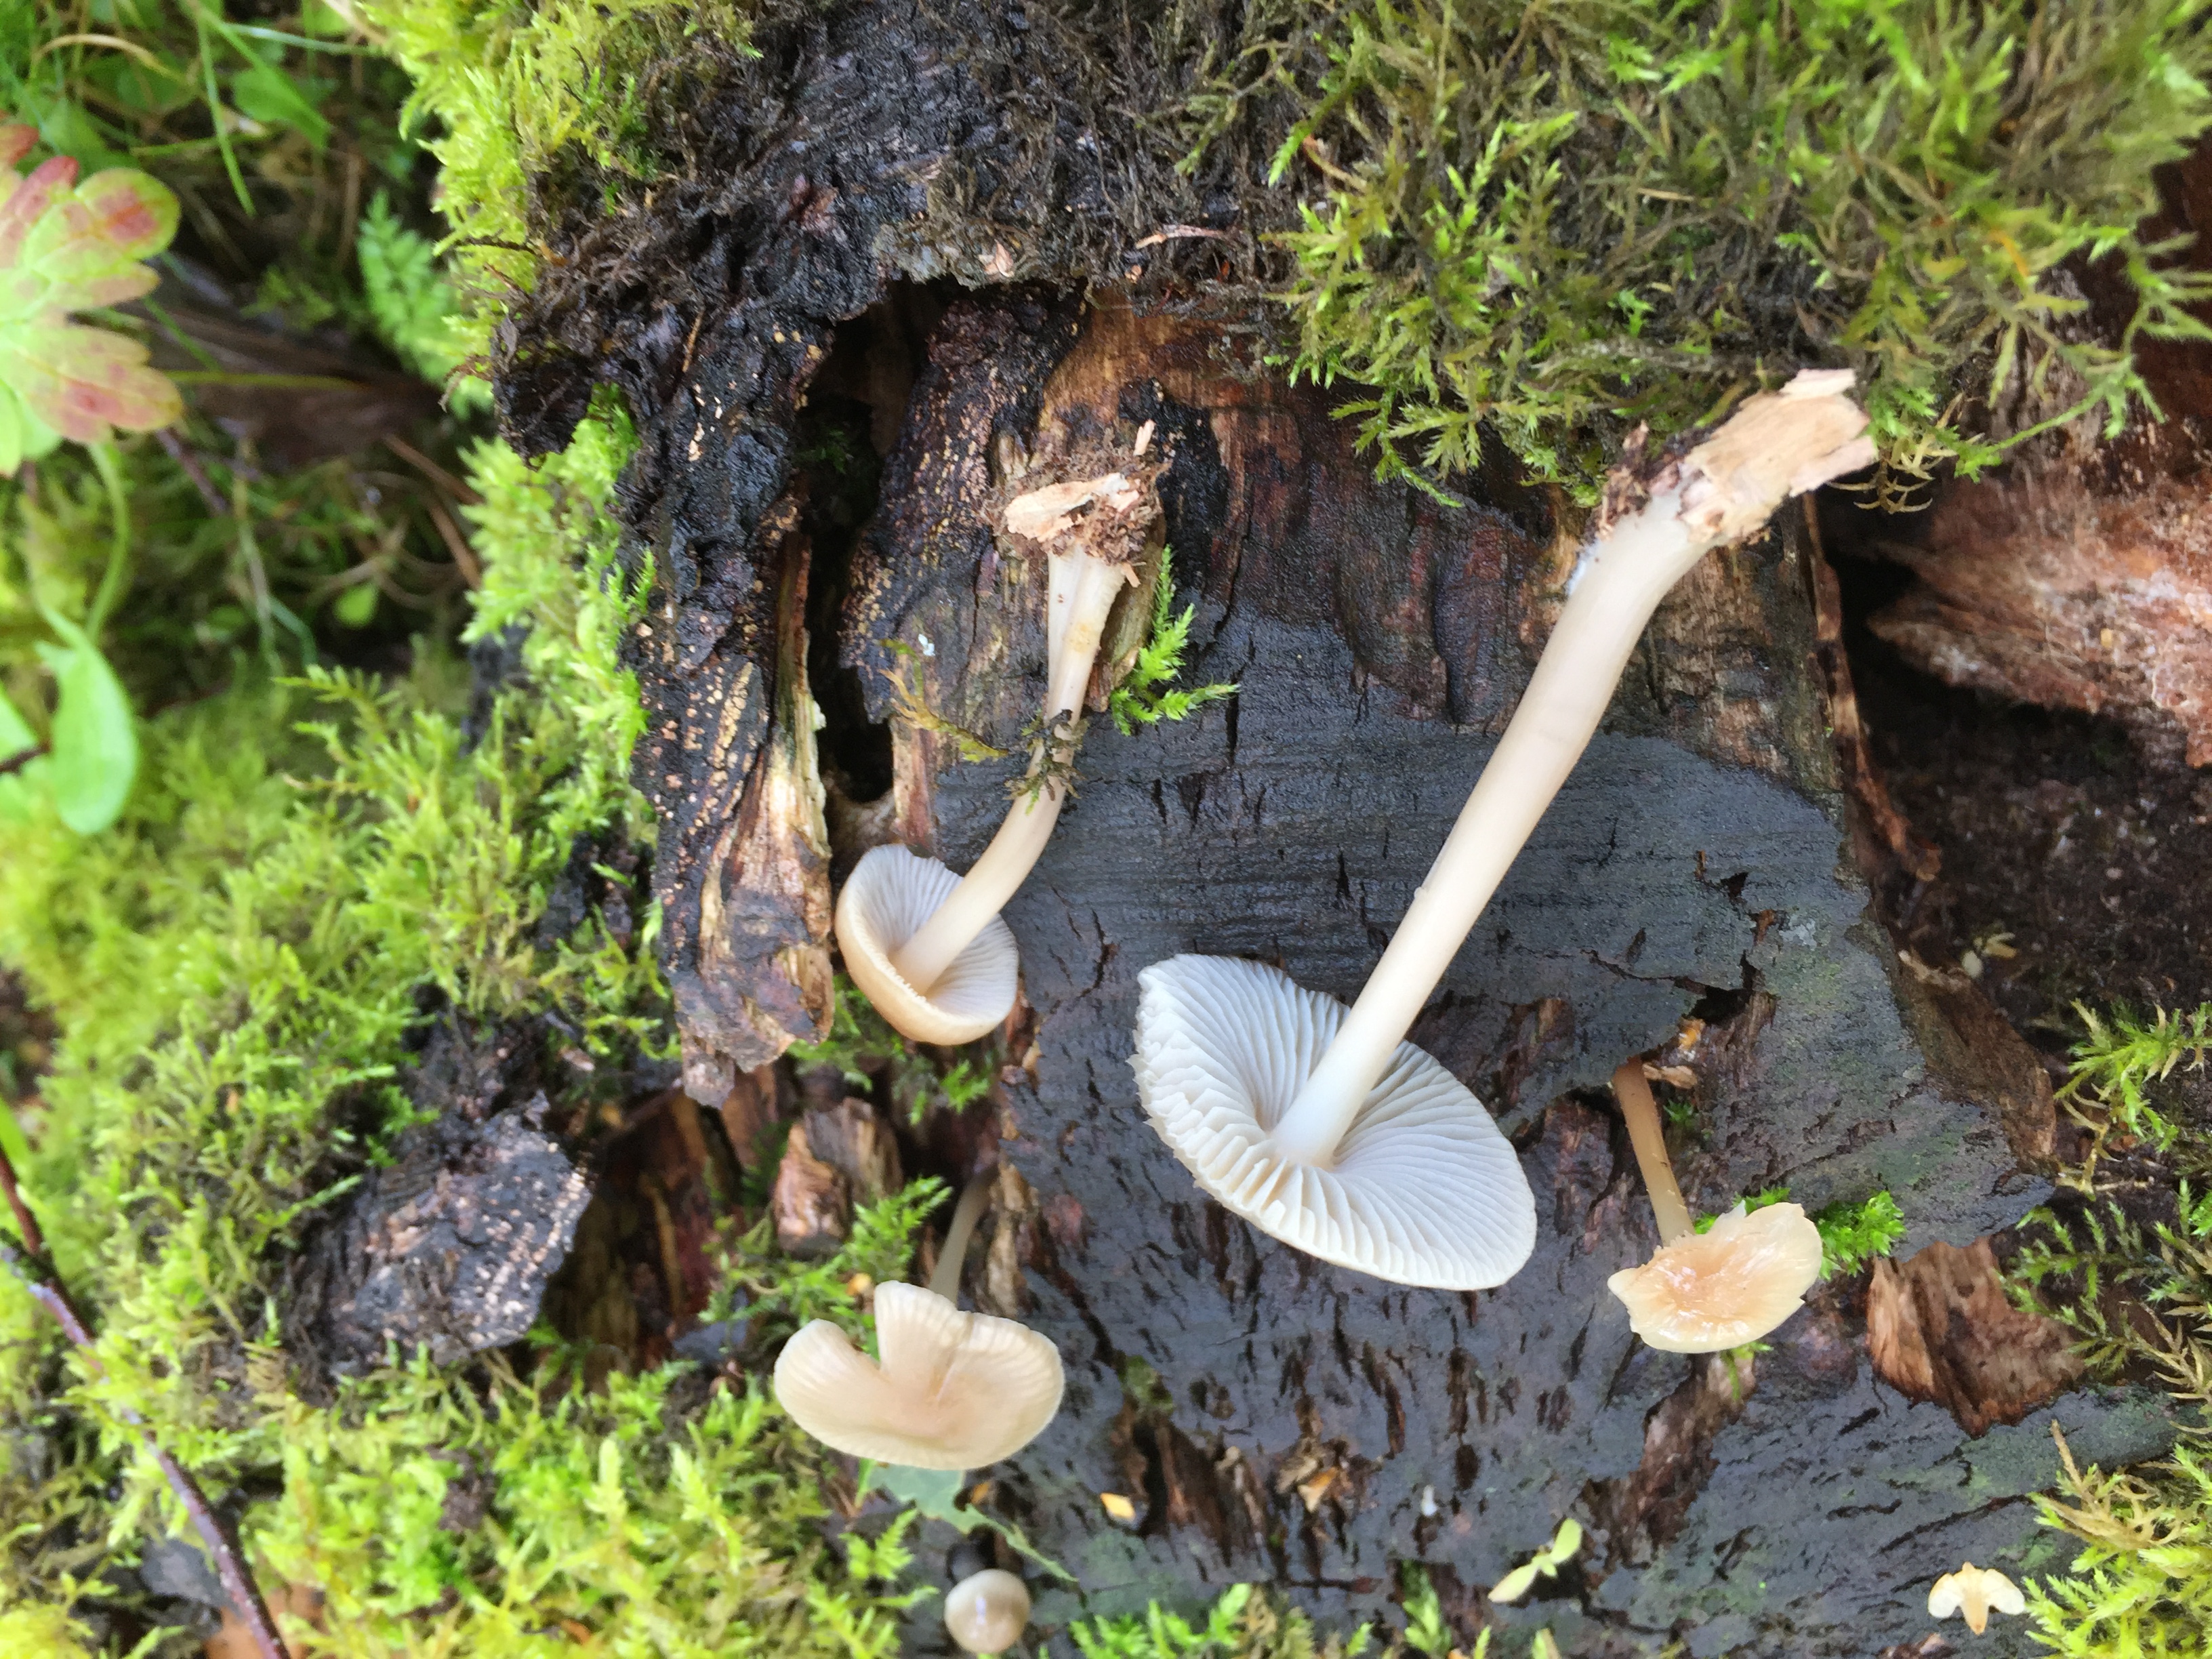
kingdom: Fungi
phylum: Basidiomycota
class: Agaricomycetes
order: Agaricales
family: Mycenaceae
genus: Mycena
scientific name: Mycena galericulata
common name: Bonnet mycena
